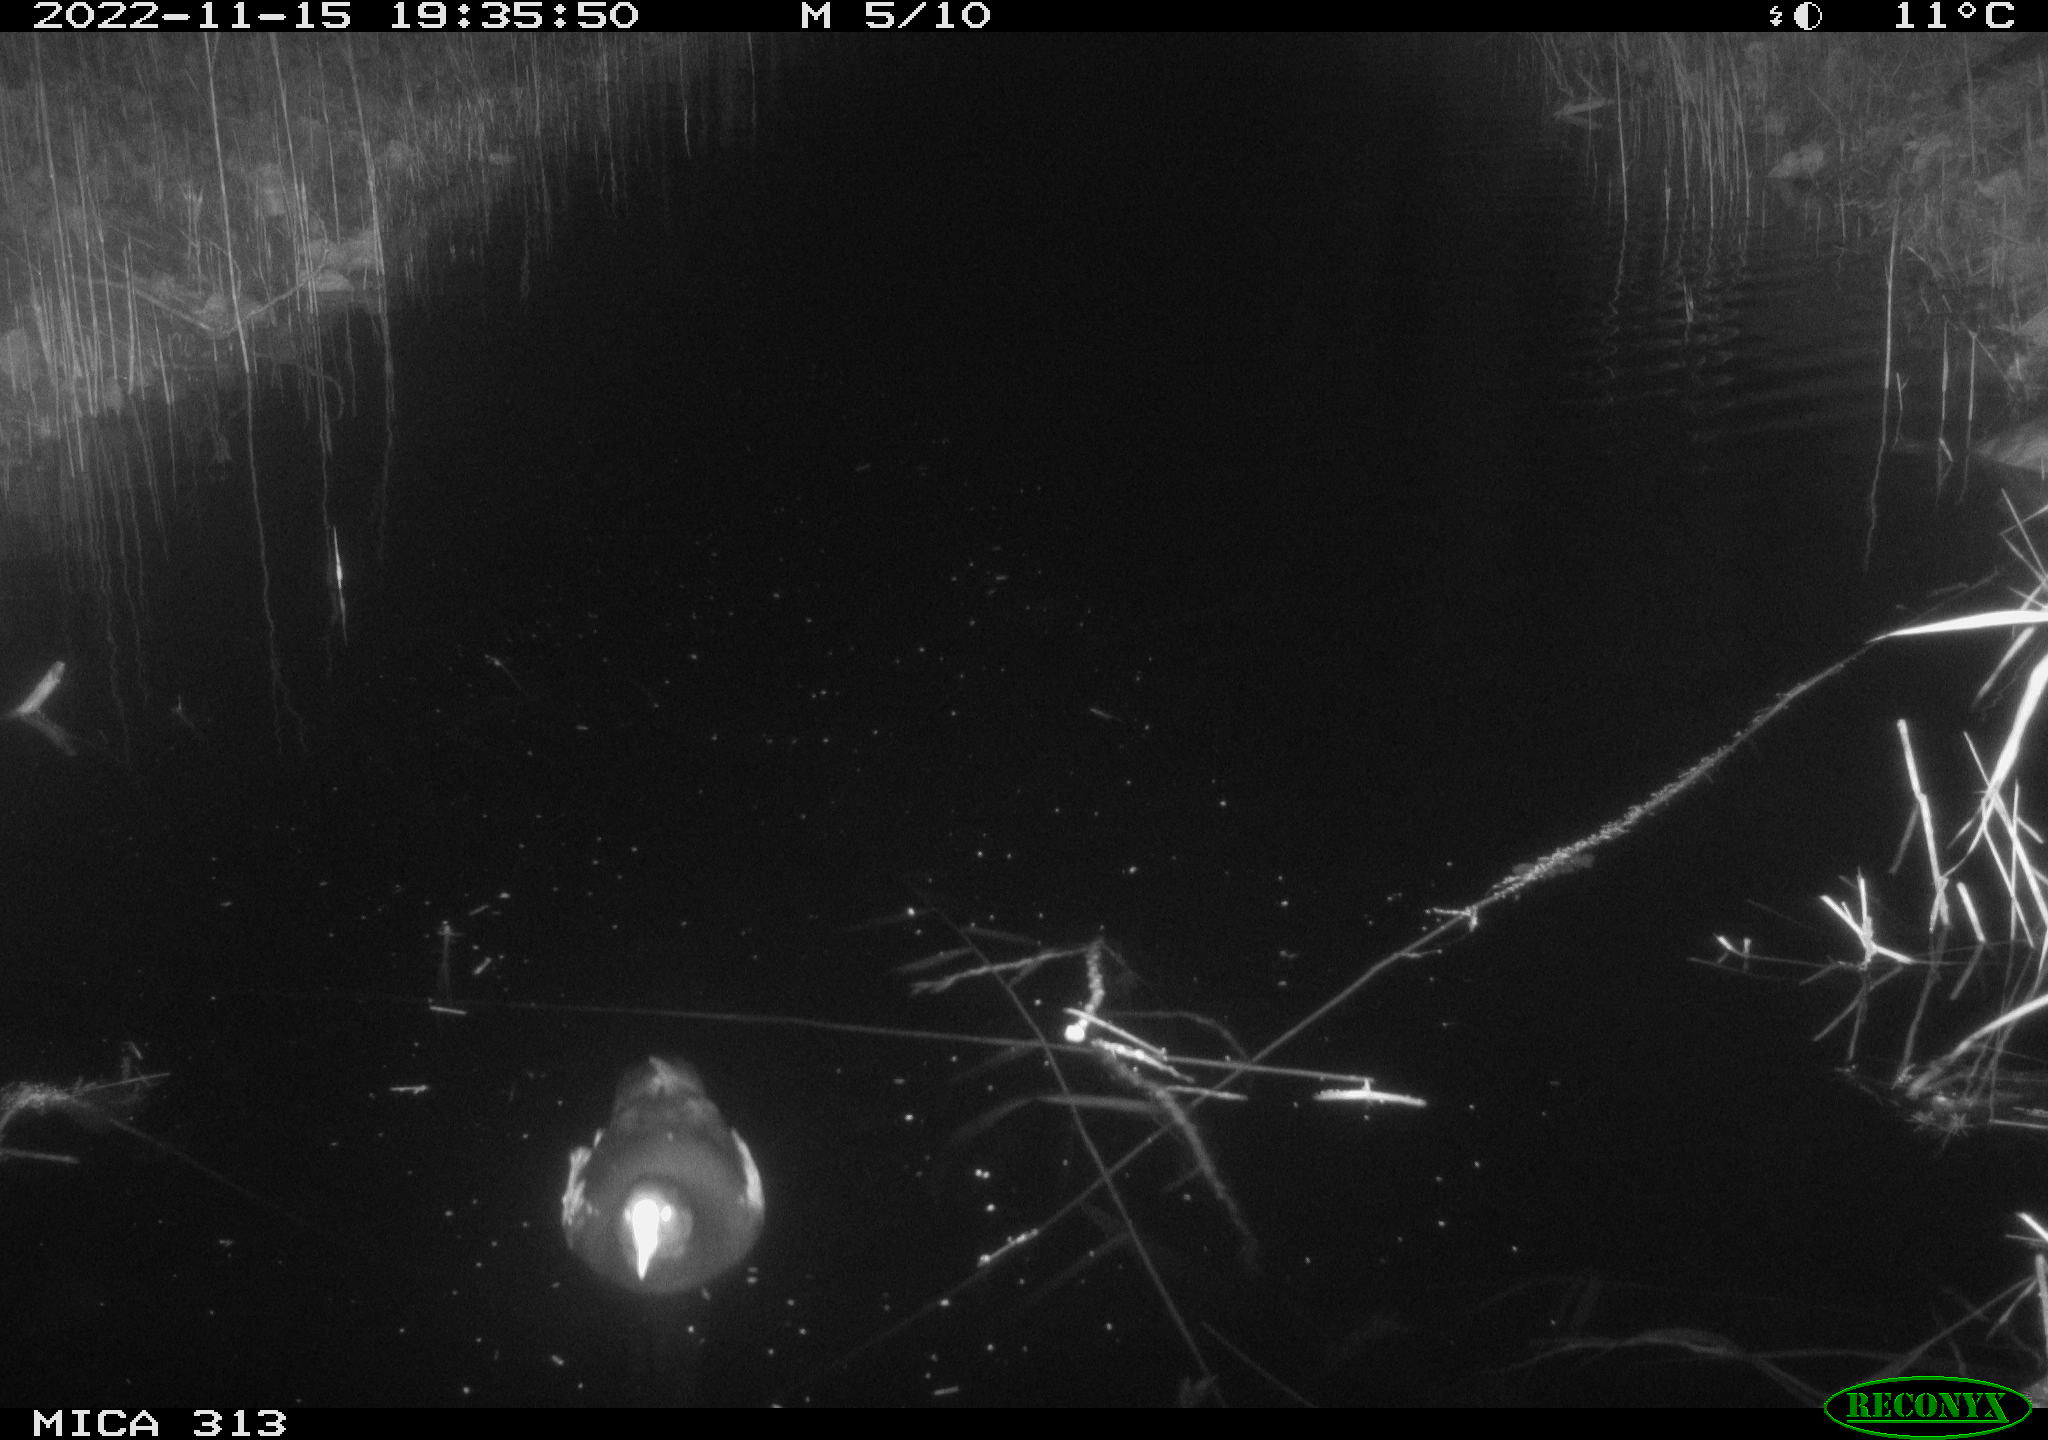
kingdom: Animalia
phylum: Chordata
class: Aves
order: Gruiformes
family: Rallidae
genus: Fulica
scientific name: Fulica atra
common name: Eurasian coot
